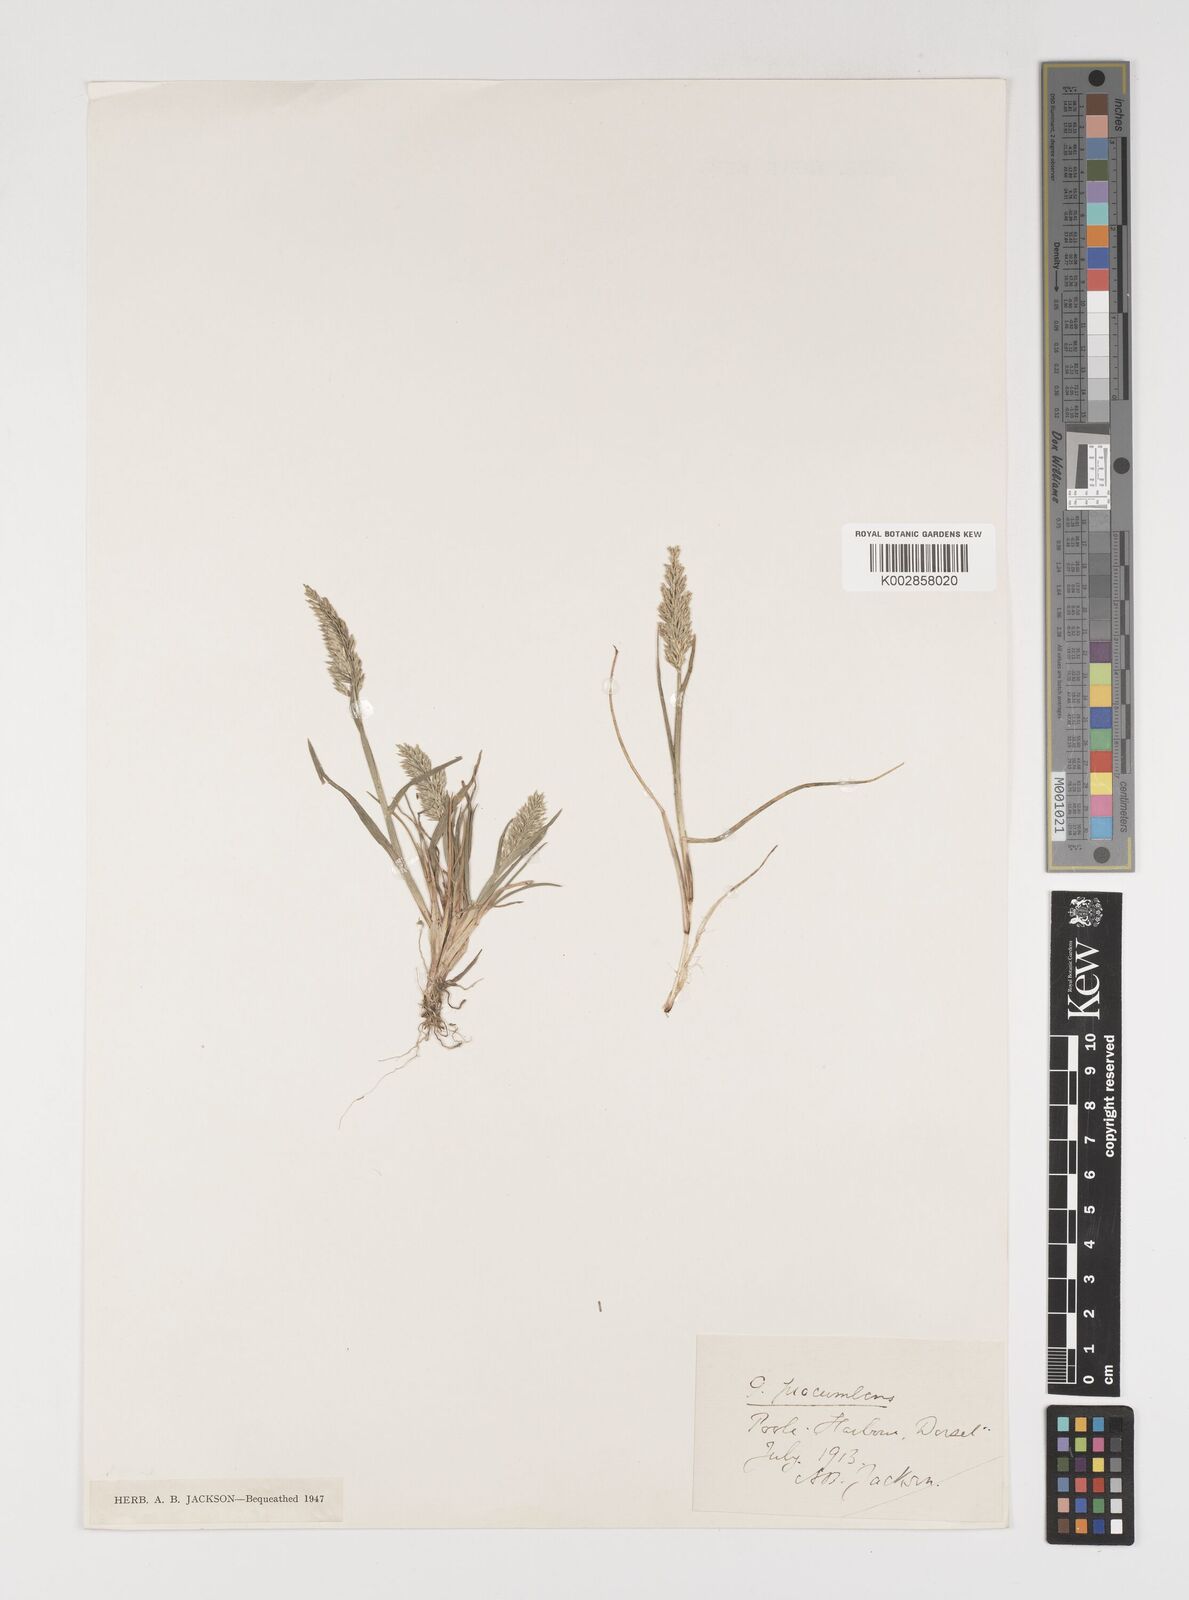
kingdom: Plantae
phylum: Tracheophyta
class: Liliopsida
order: Poales
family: Poaceae
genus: Puccinellia
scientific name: Puccinellia rupestris
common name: Stiff saltmarsh-grass
